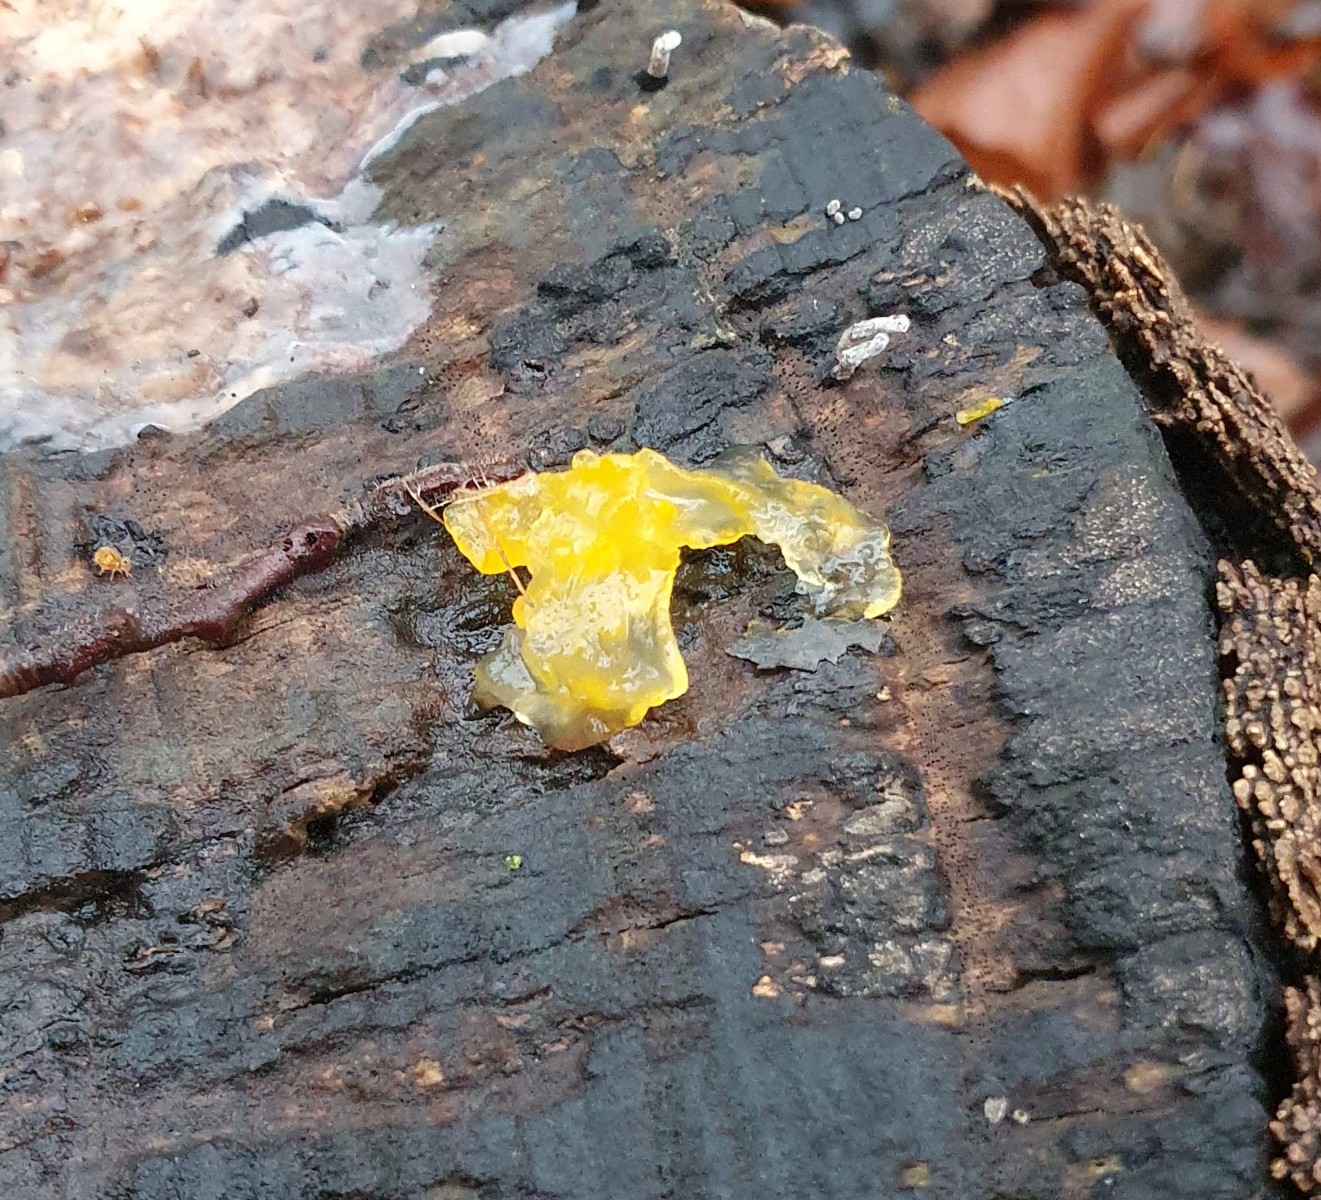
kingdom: Fungi
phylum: Basidiomycota
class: Tremellomycetes
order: Tremellales
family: Tremellaceae
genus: Tremella
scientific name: Tremella mesenterica
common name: gul bævresvamp
